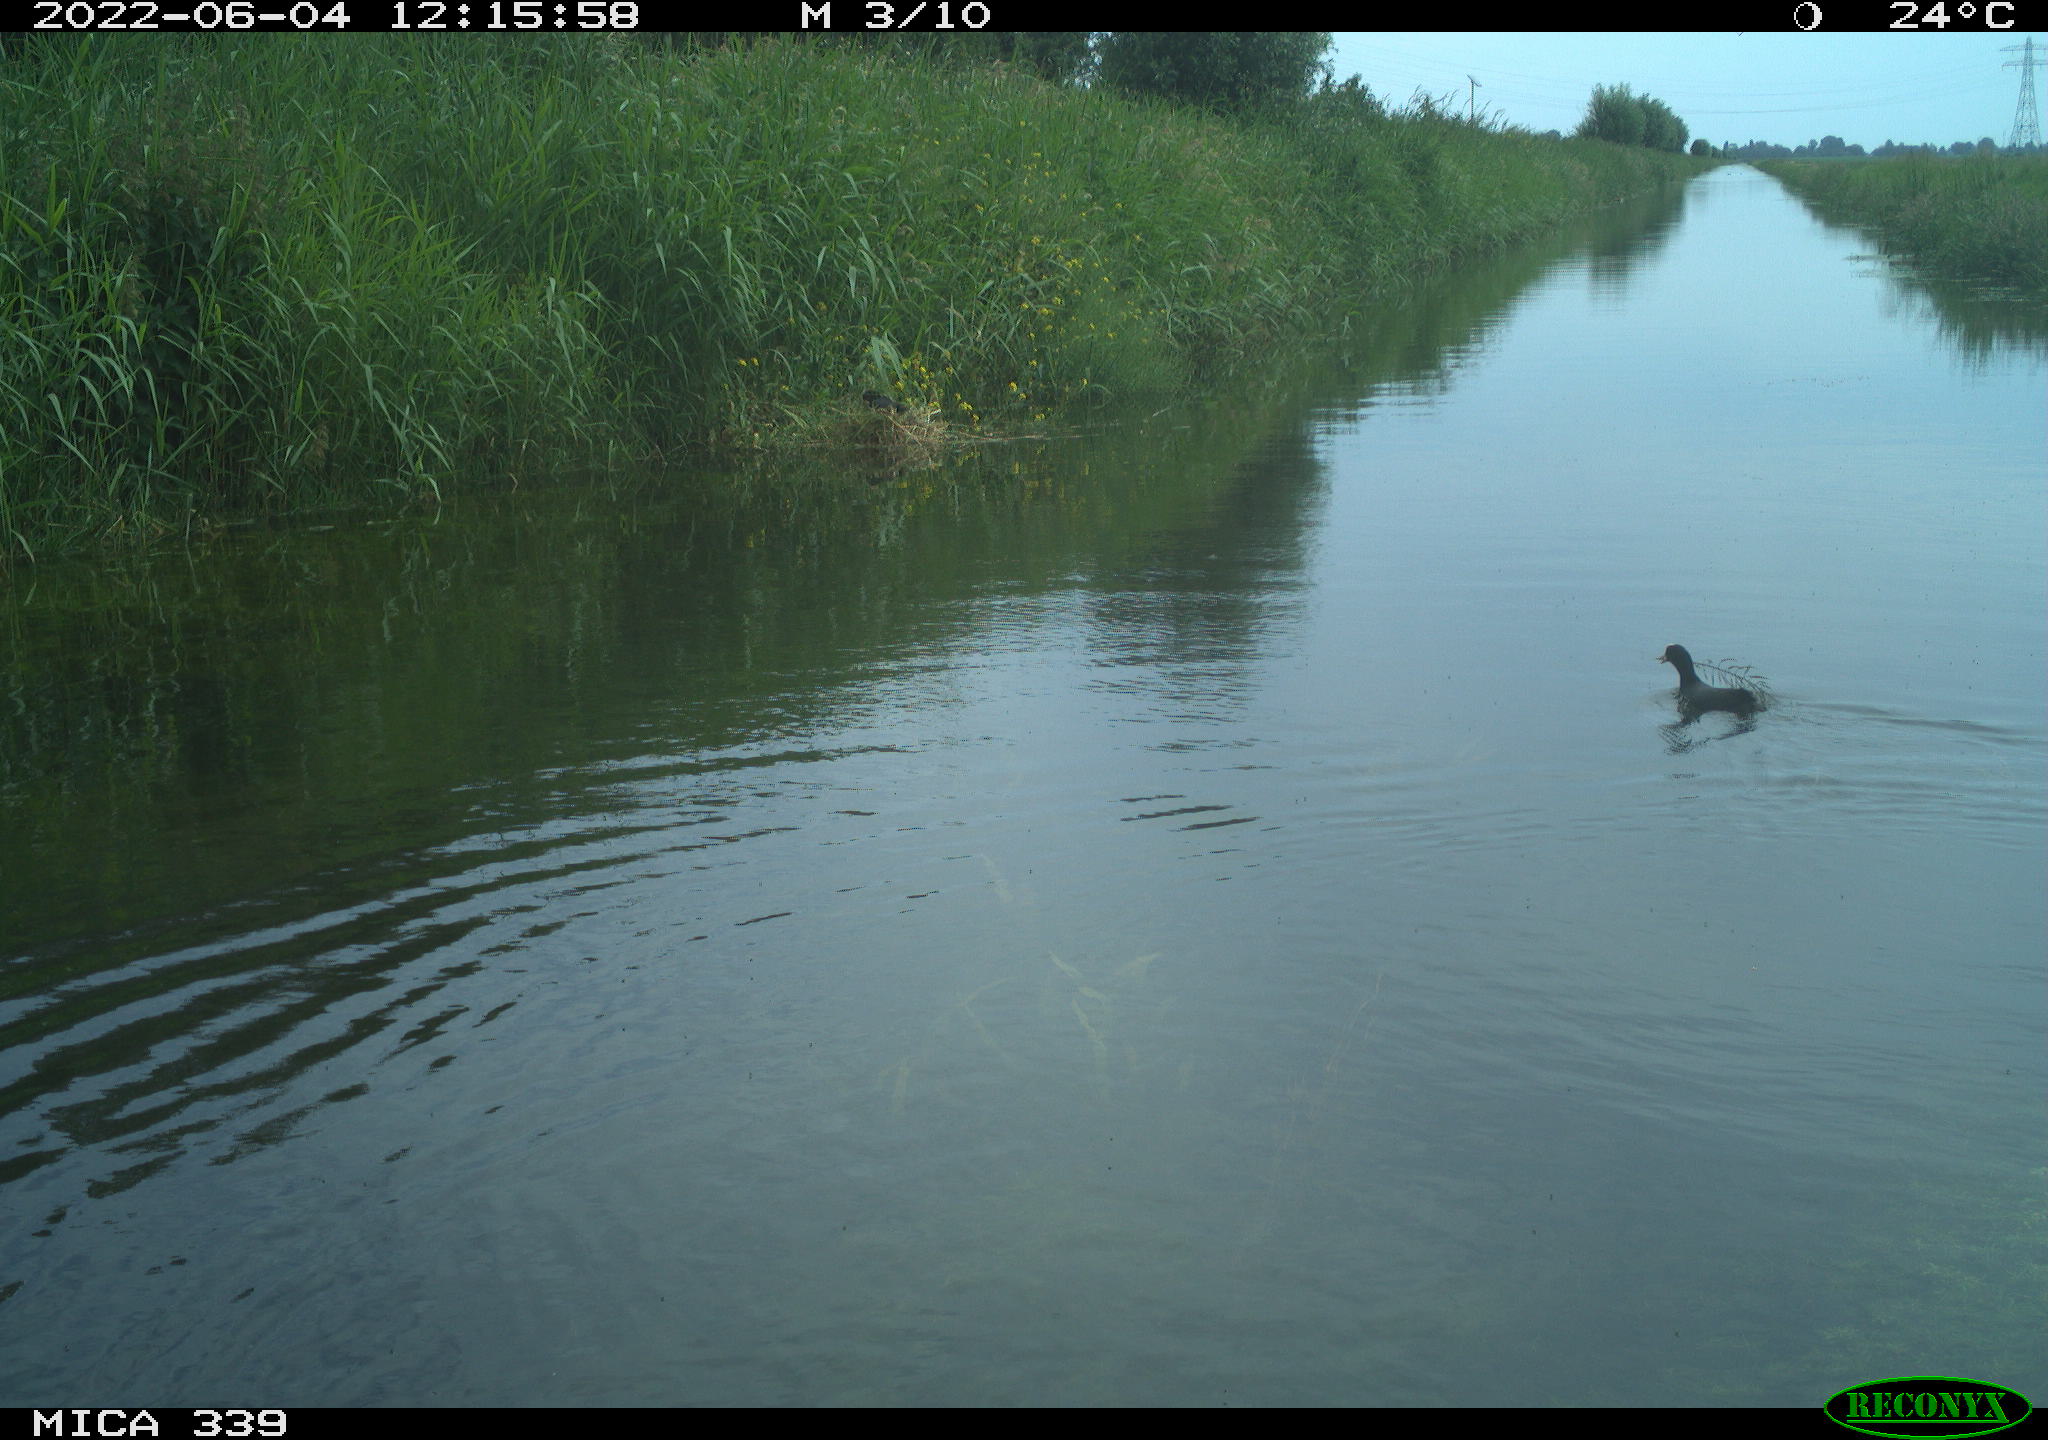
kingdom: Animalia
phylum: Chordata
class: Aves
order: Gruiformes
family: Rallidae
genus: Fulica
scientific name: Fulica atra
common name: Eurasian coot
